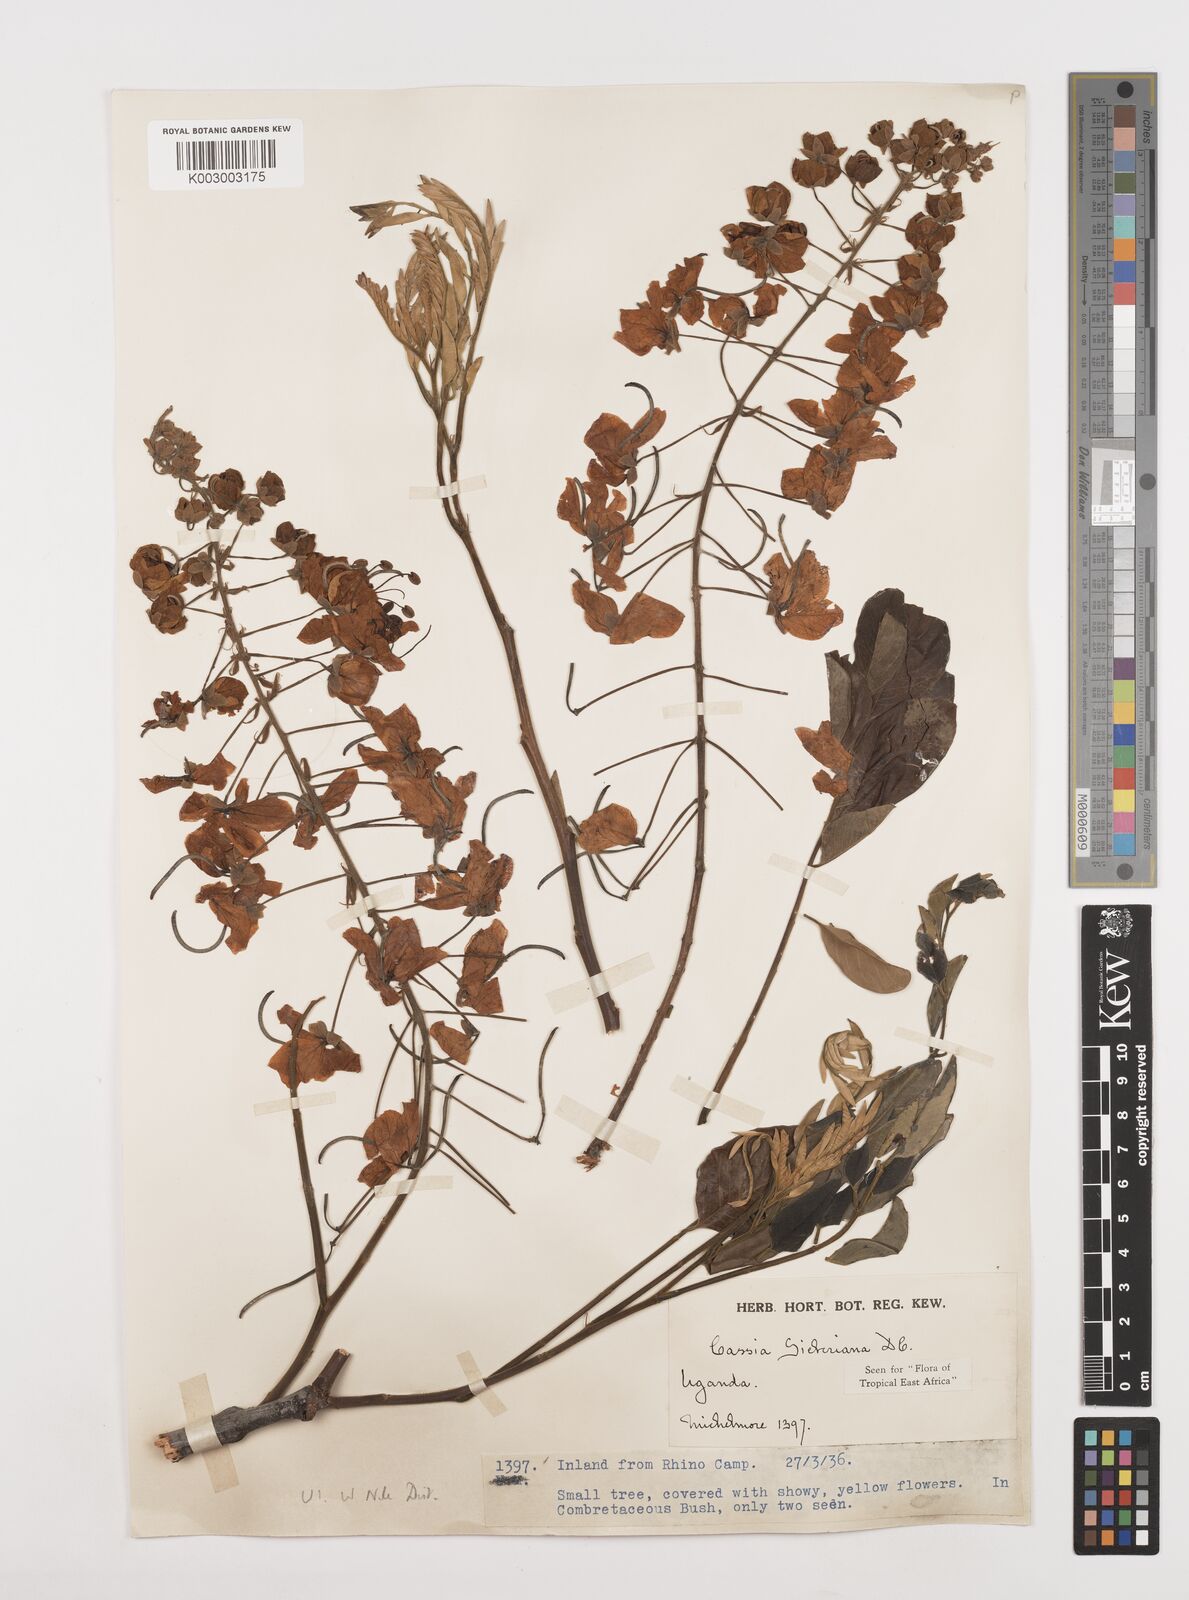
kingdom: Plantae
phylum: Tracheophyta
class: Magnoliopsida
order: Fabales
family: Fabaceae
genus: Cassia
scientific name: Cassia sieberiana
